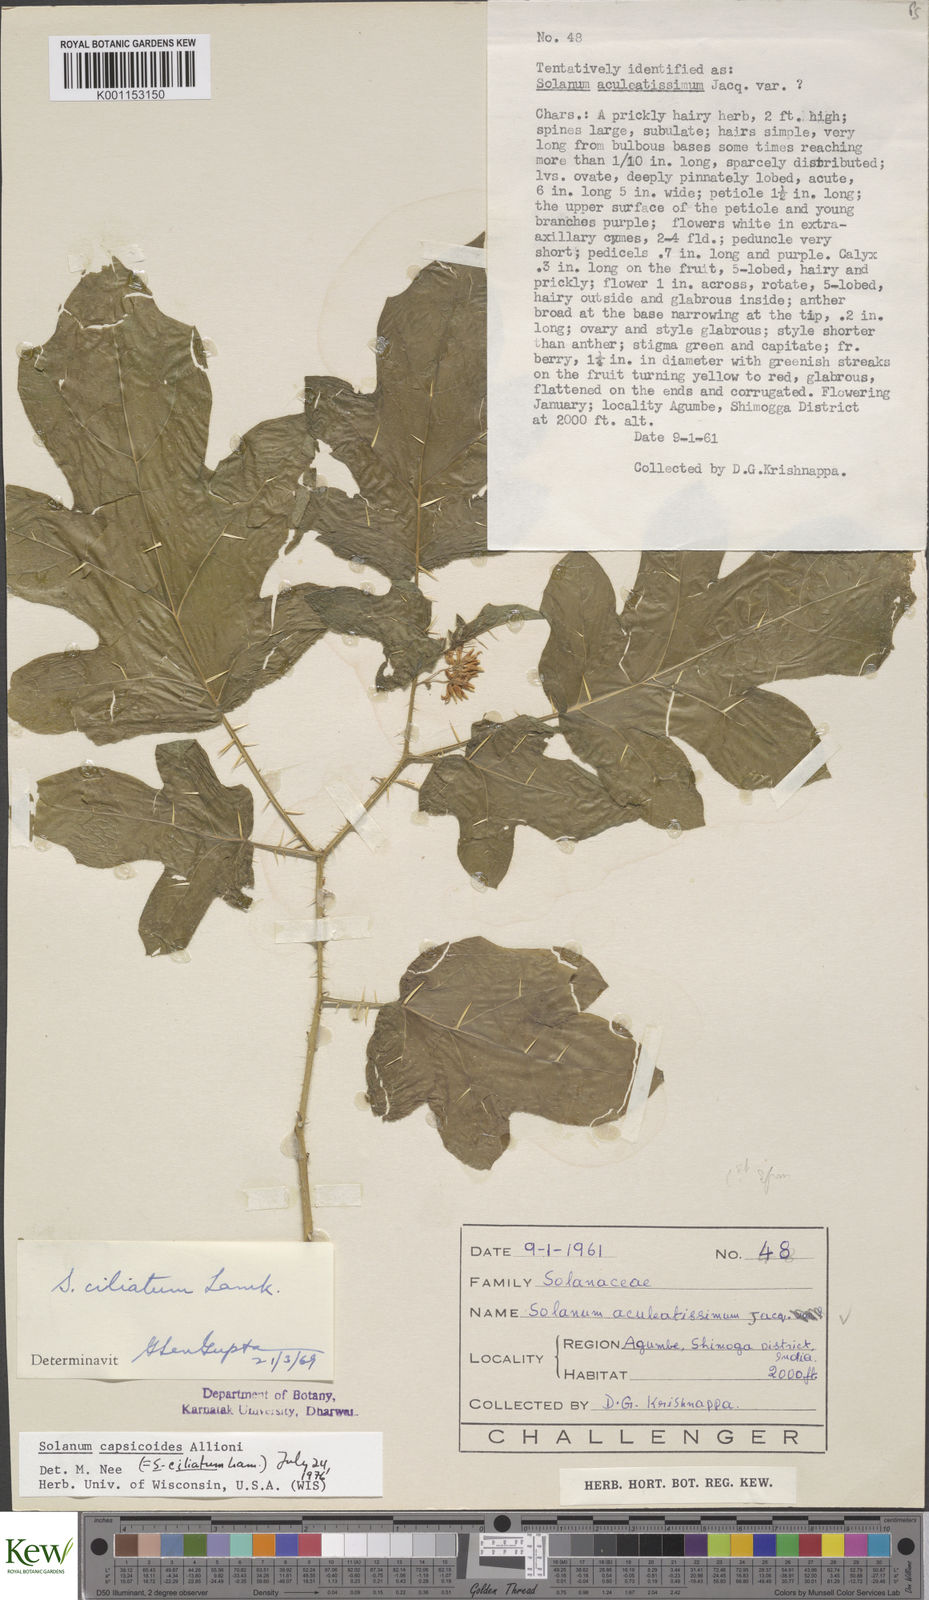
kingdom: Plantae
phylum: Tracheophyta
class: Magnoliopsida
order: Solanales
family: Solanaceae
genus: Solanum
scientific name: Solanum capsicoides
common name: Cockroach berry
